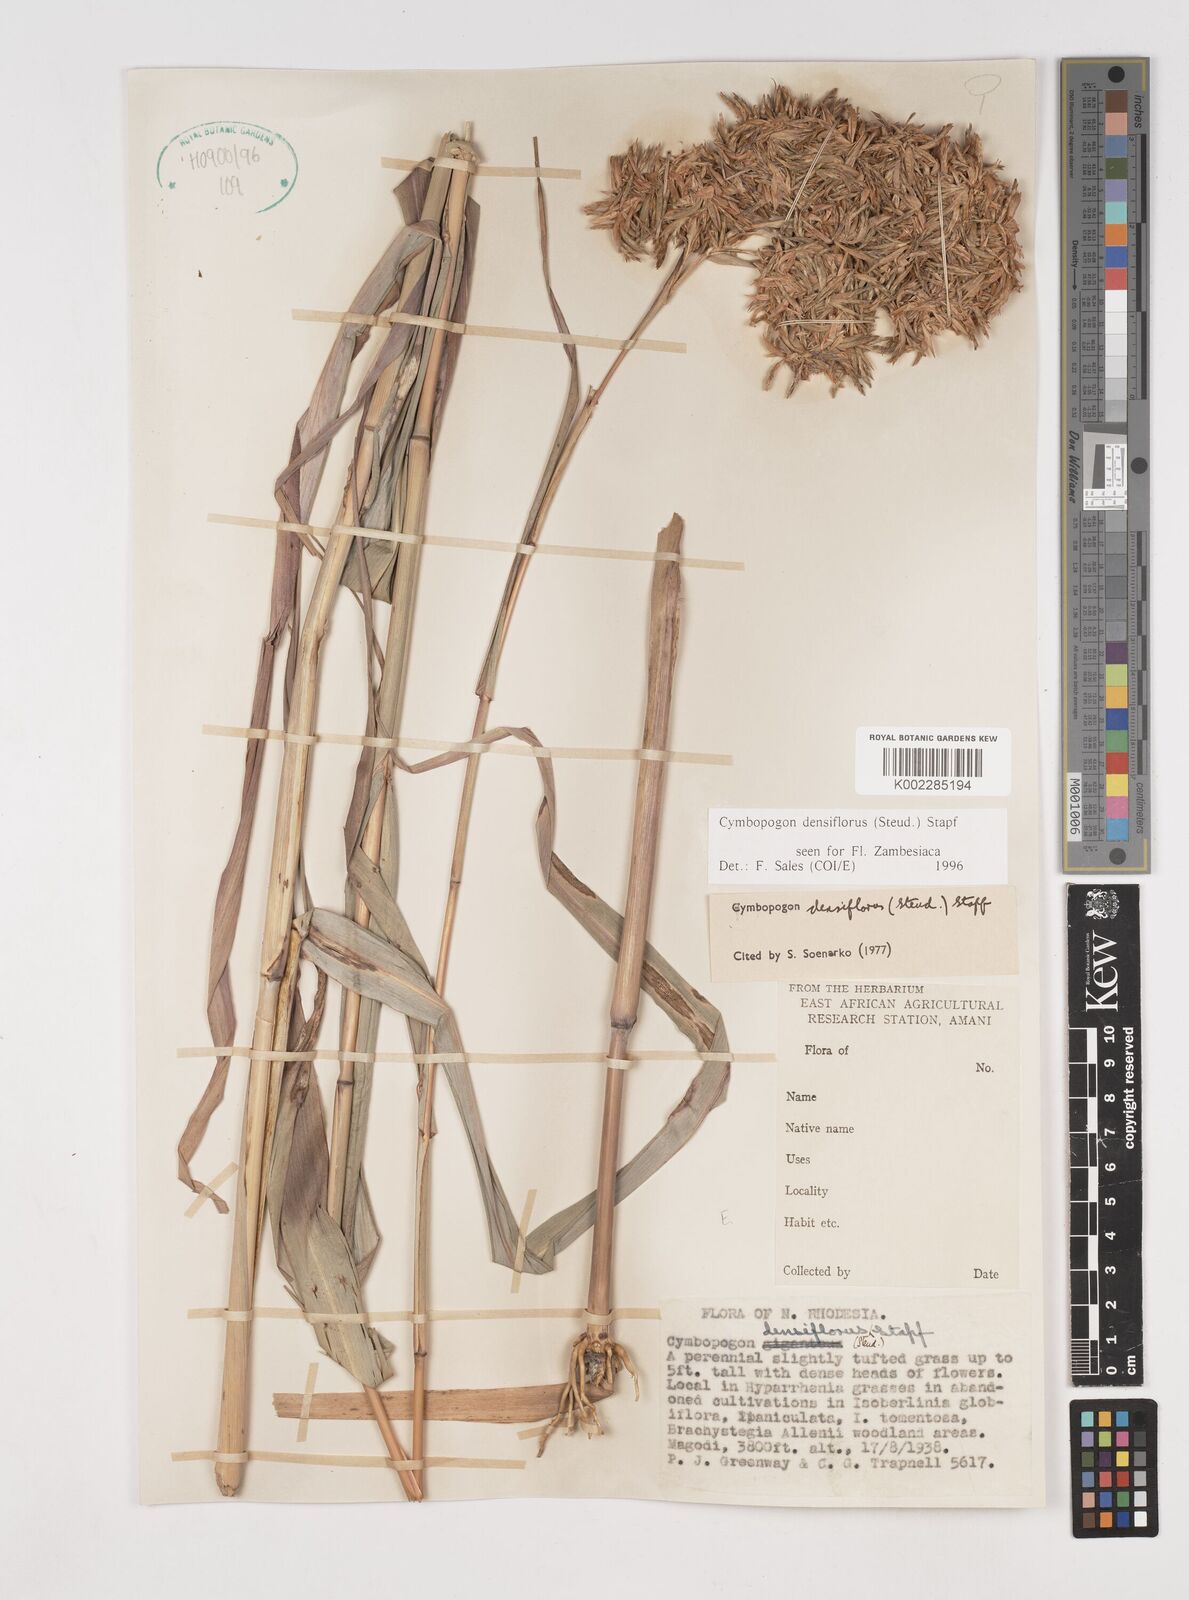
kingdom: Plantae
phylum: Tracheophyta
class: Liliopsida
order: Poales
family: Poaceae
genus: Cymbopogon
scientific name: Cymbopogon densiflorus
